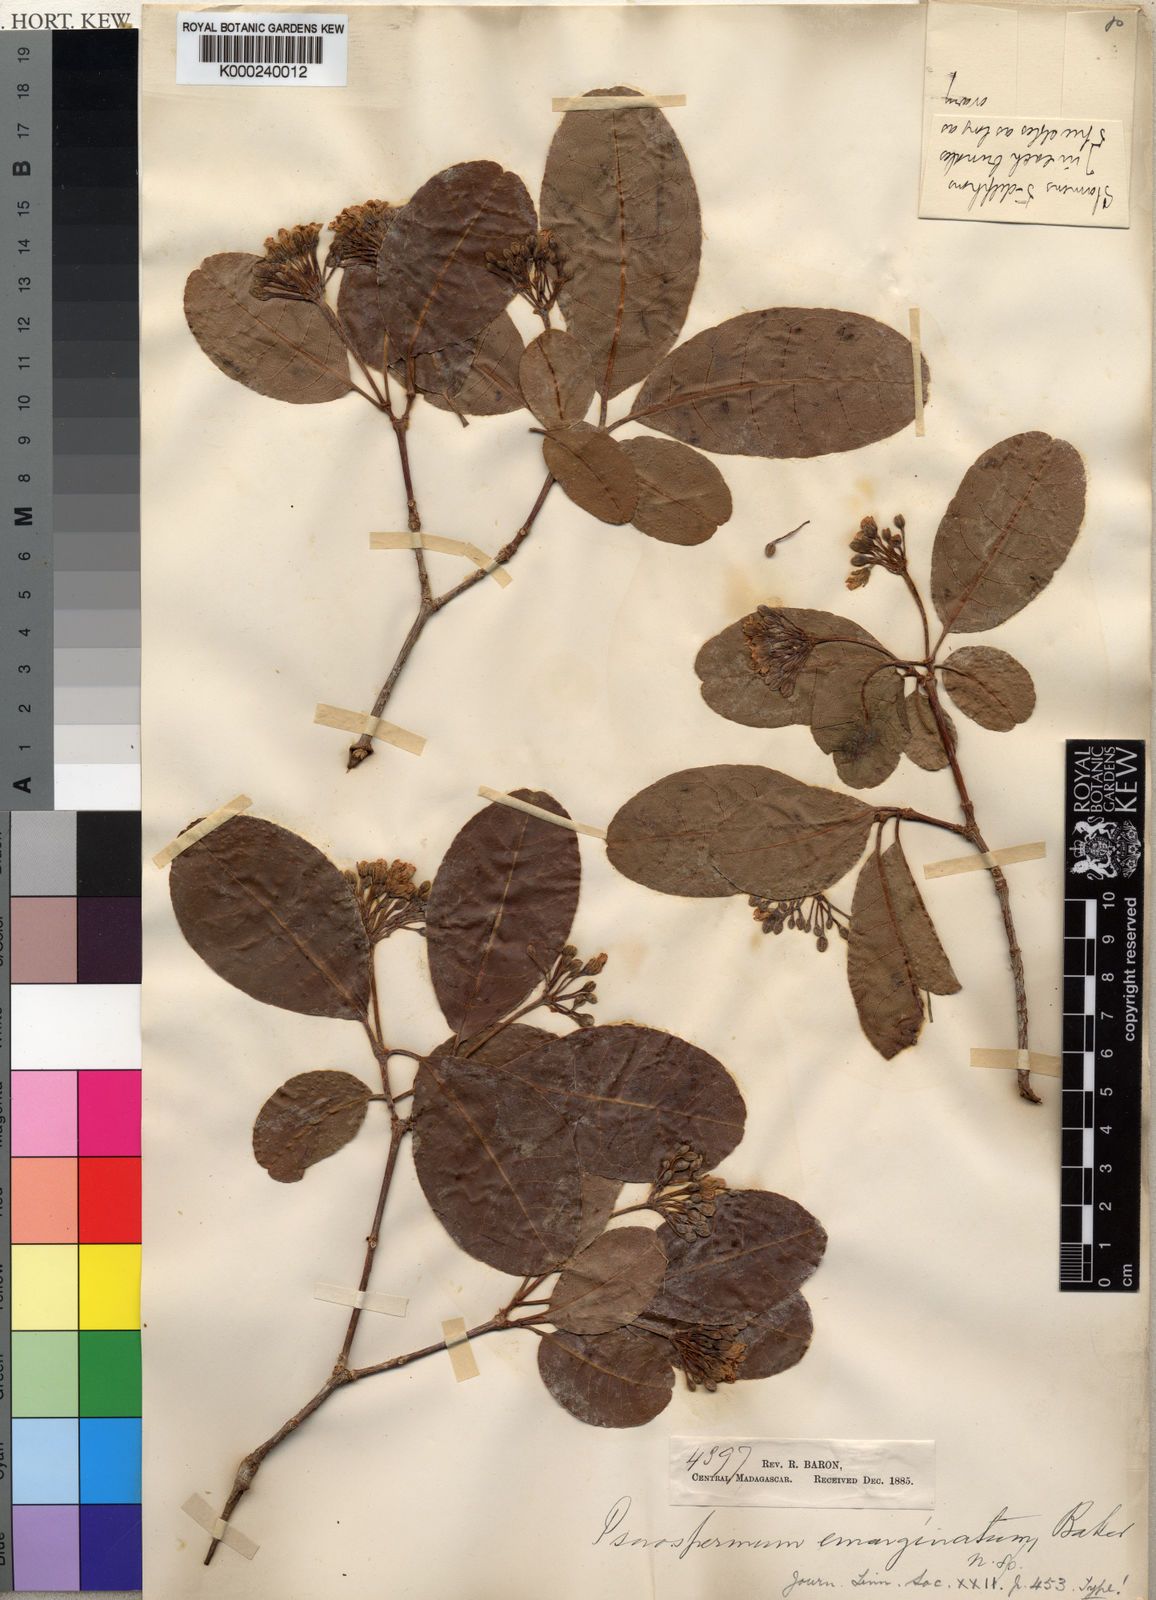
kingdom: Plantae
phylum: Tracheophyta
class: Magnoliopsida
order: Malpighiales
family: Hypericaceae
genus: Psorospermum
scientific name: Psorospermum cerasifolium
